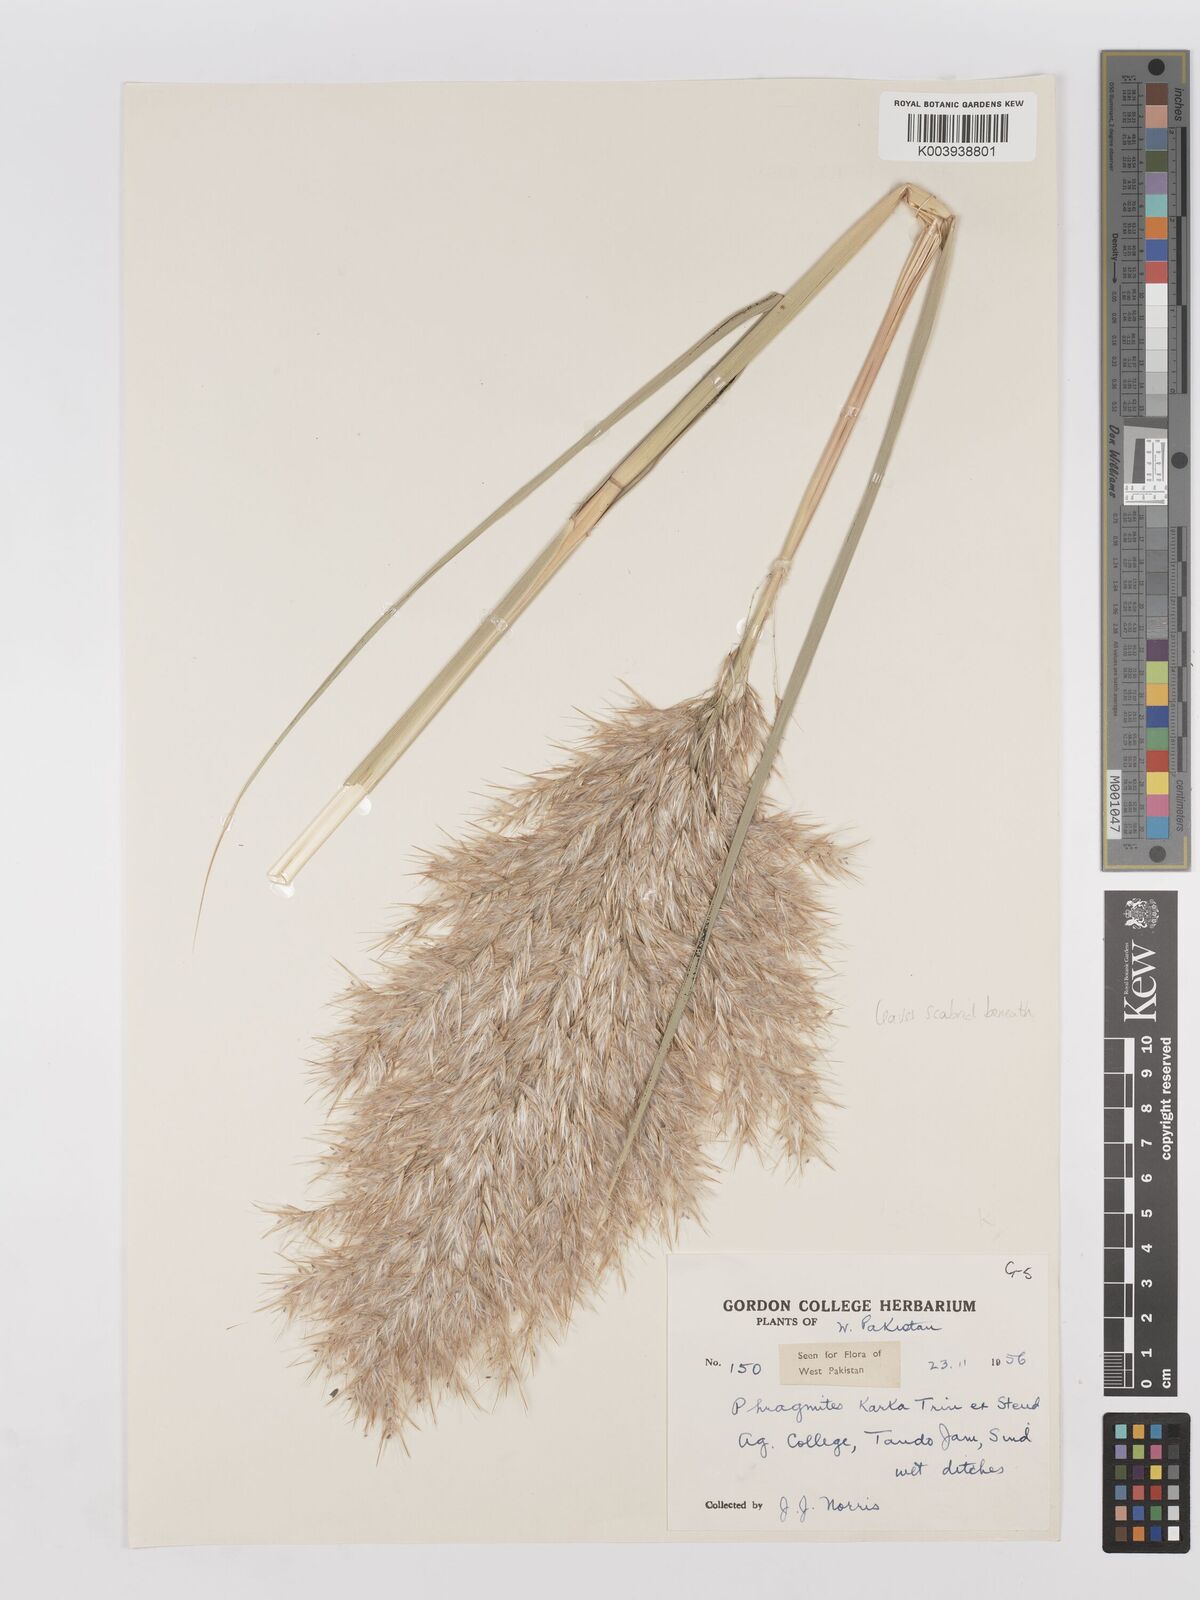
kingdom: Plantae
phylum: Tracheophyta
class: Liliopsida
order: Poales
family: Poaceae
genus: Phragmites
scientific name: Phragmites karka
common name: Tropical reed
